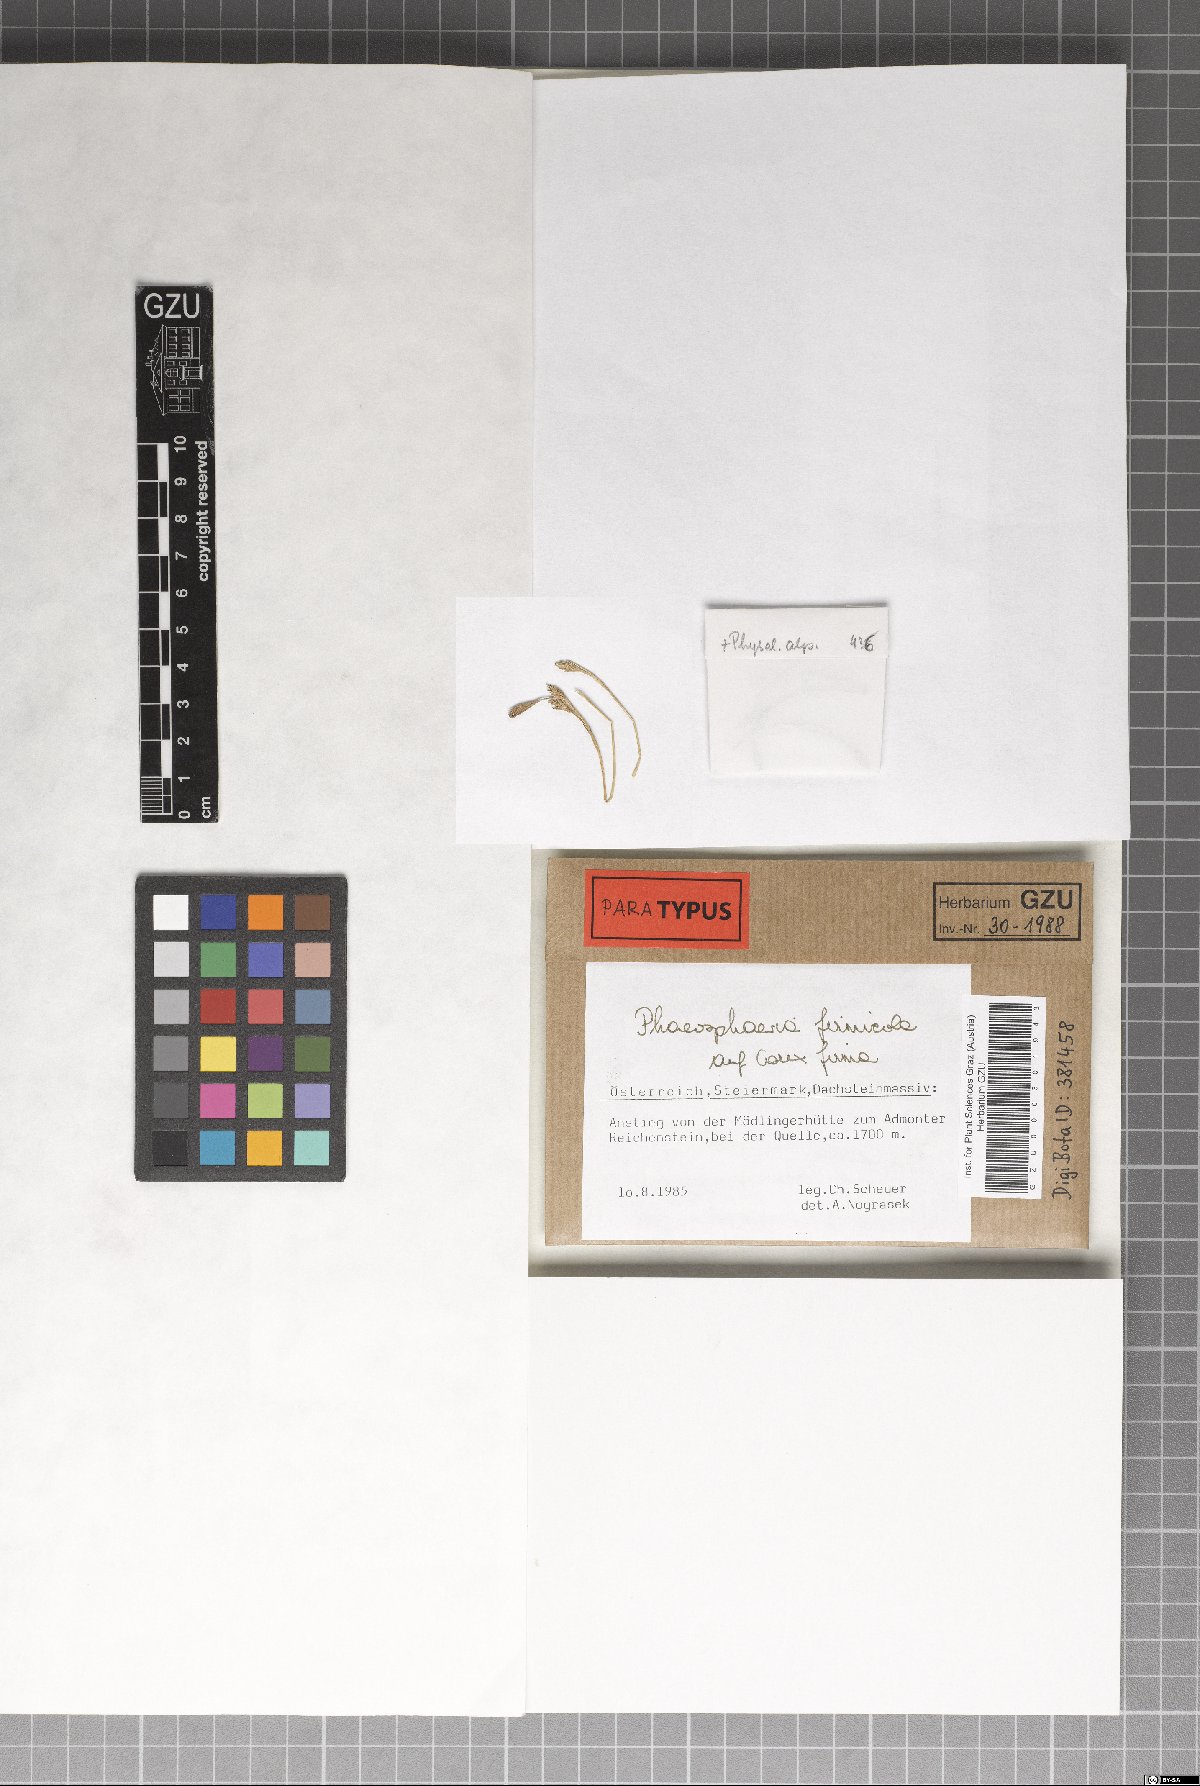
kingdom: Fungi
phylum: Ascomycota
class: Dothideomycetes
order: Pleosporales
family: Phaeosphaeriaceae
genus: Phaeosphaeria
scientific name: Phaeosphaeria firmicola
